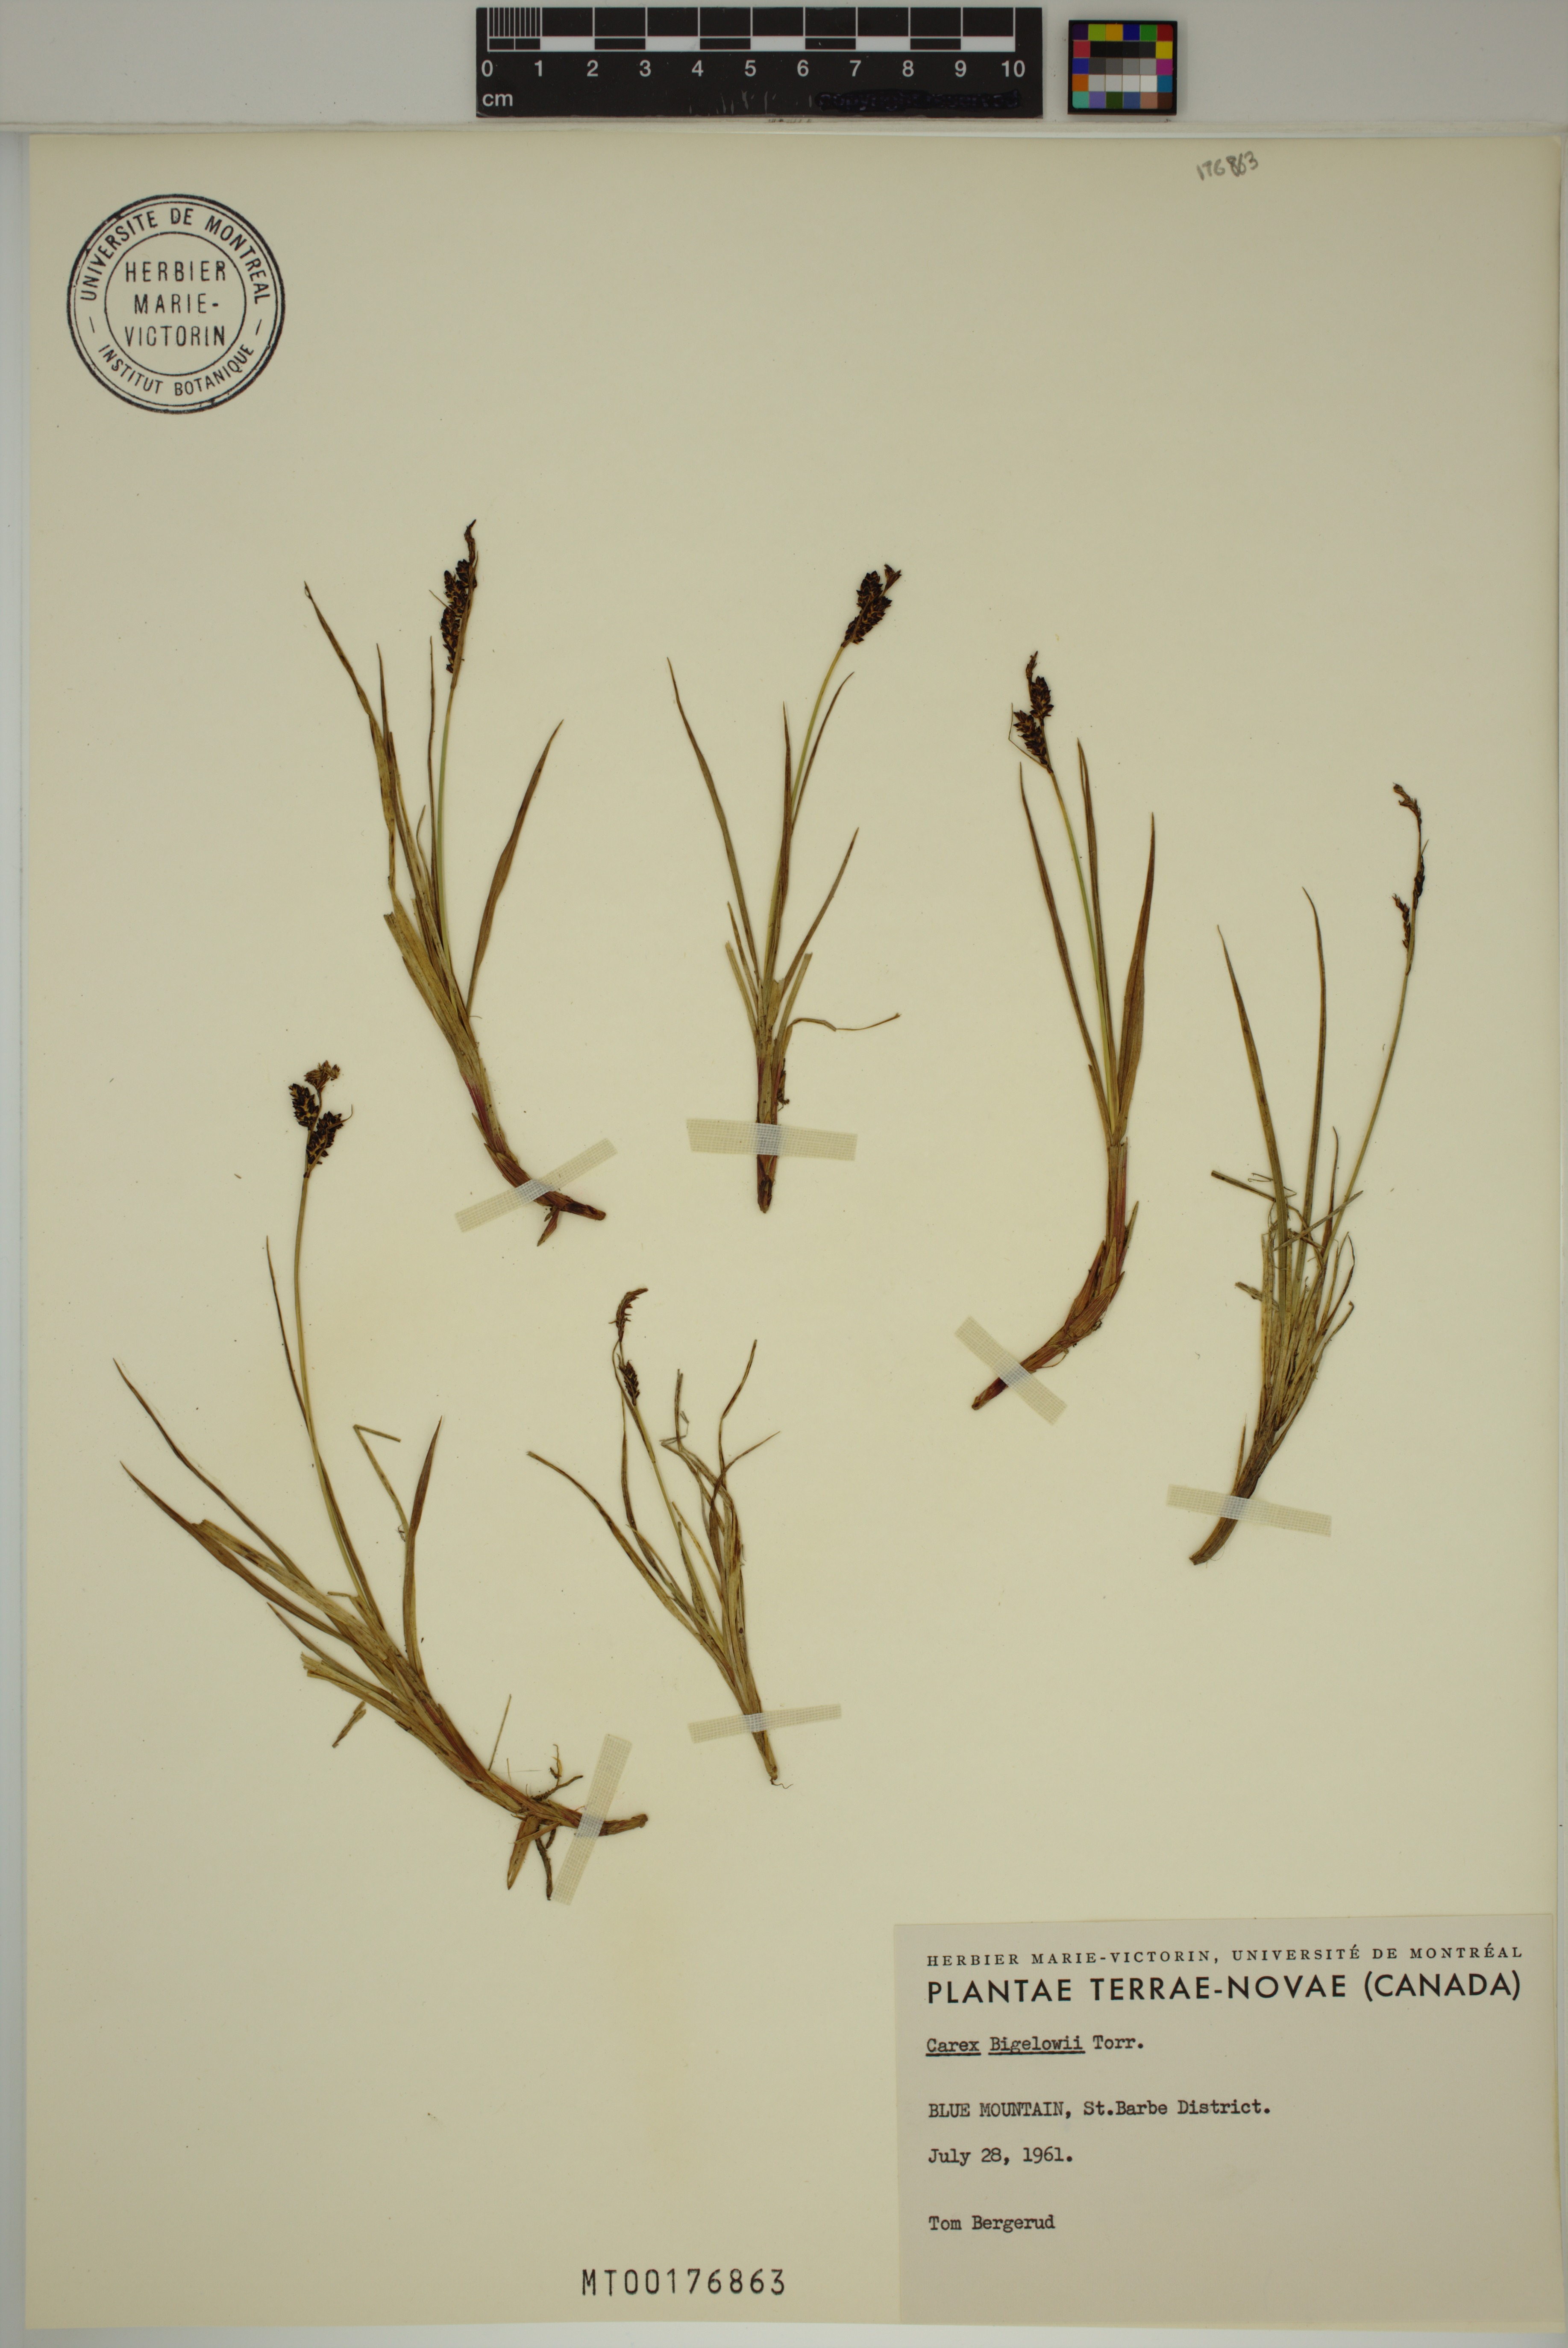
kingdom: Plantae
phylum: Tracheophyta
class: Liliopsida
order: Poales
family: Cyperaceae
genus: Carex
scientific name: Carex bigelowii
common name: Stiff sedge
